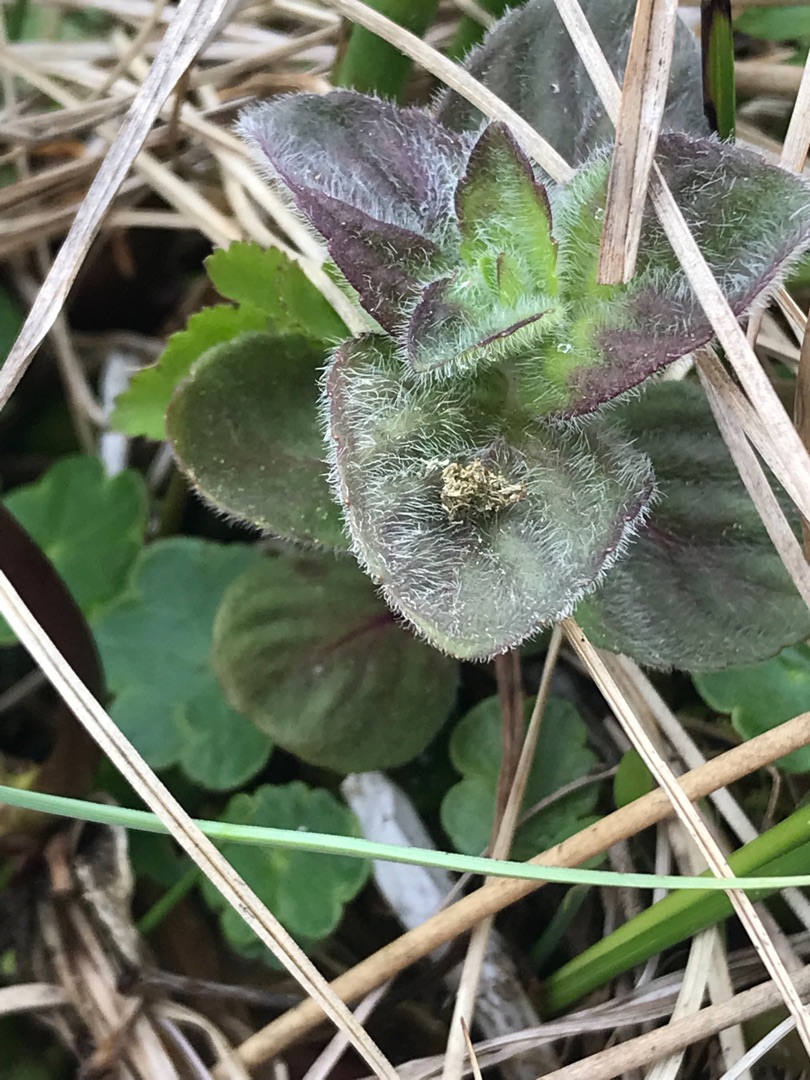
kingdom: Plantae
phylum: Tracheophyta
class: Magnoliopsida
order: Lamiales
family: Lamiaceae
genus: Mentha
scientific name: Mentha aquatica
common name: Vand-mynte
